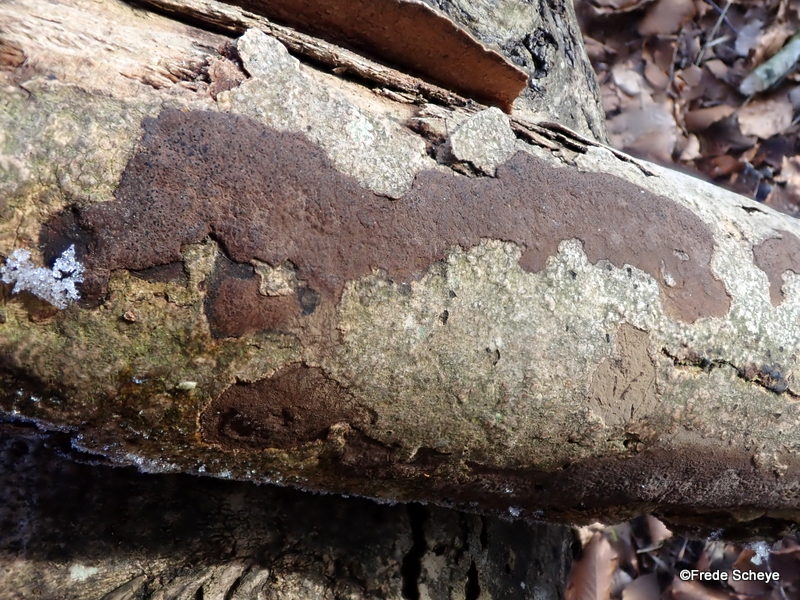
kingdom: Fungi
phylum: Ascomycota
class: Sordariomycetes
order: Xylariales
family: Hypoxylaceae
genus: Hypoxylon
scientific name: Hypoxylon petriniae
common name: nedsænket kulbær
